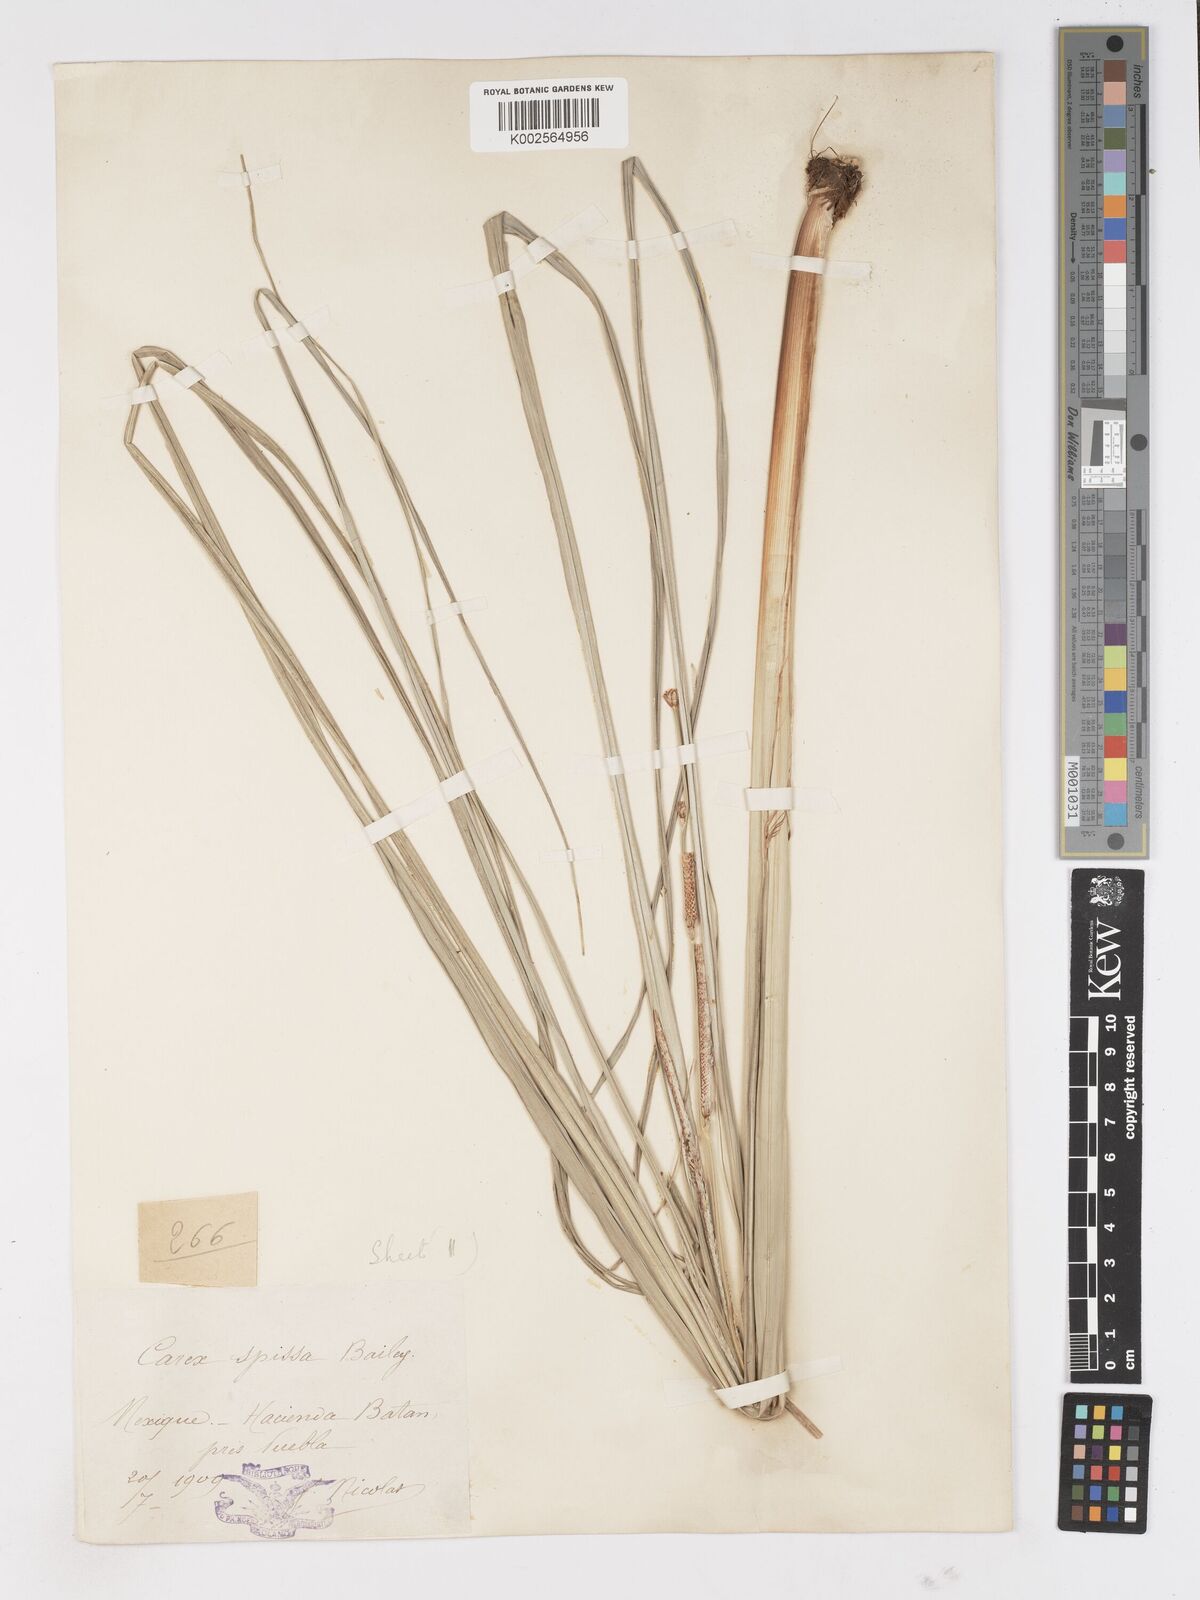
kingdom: Plantae
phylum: Tracheophyta
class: Liliopsida
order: Poales
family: Cyperaceae
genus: Carex
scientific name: Carex spissa
